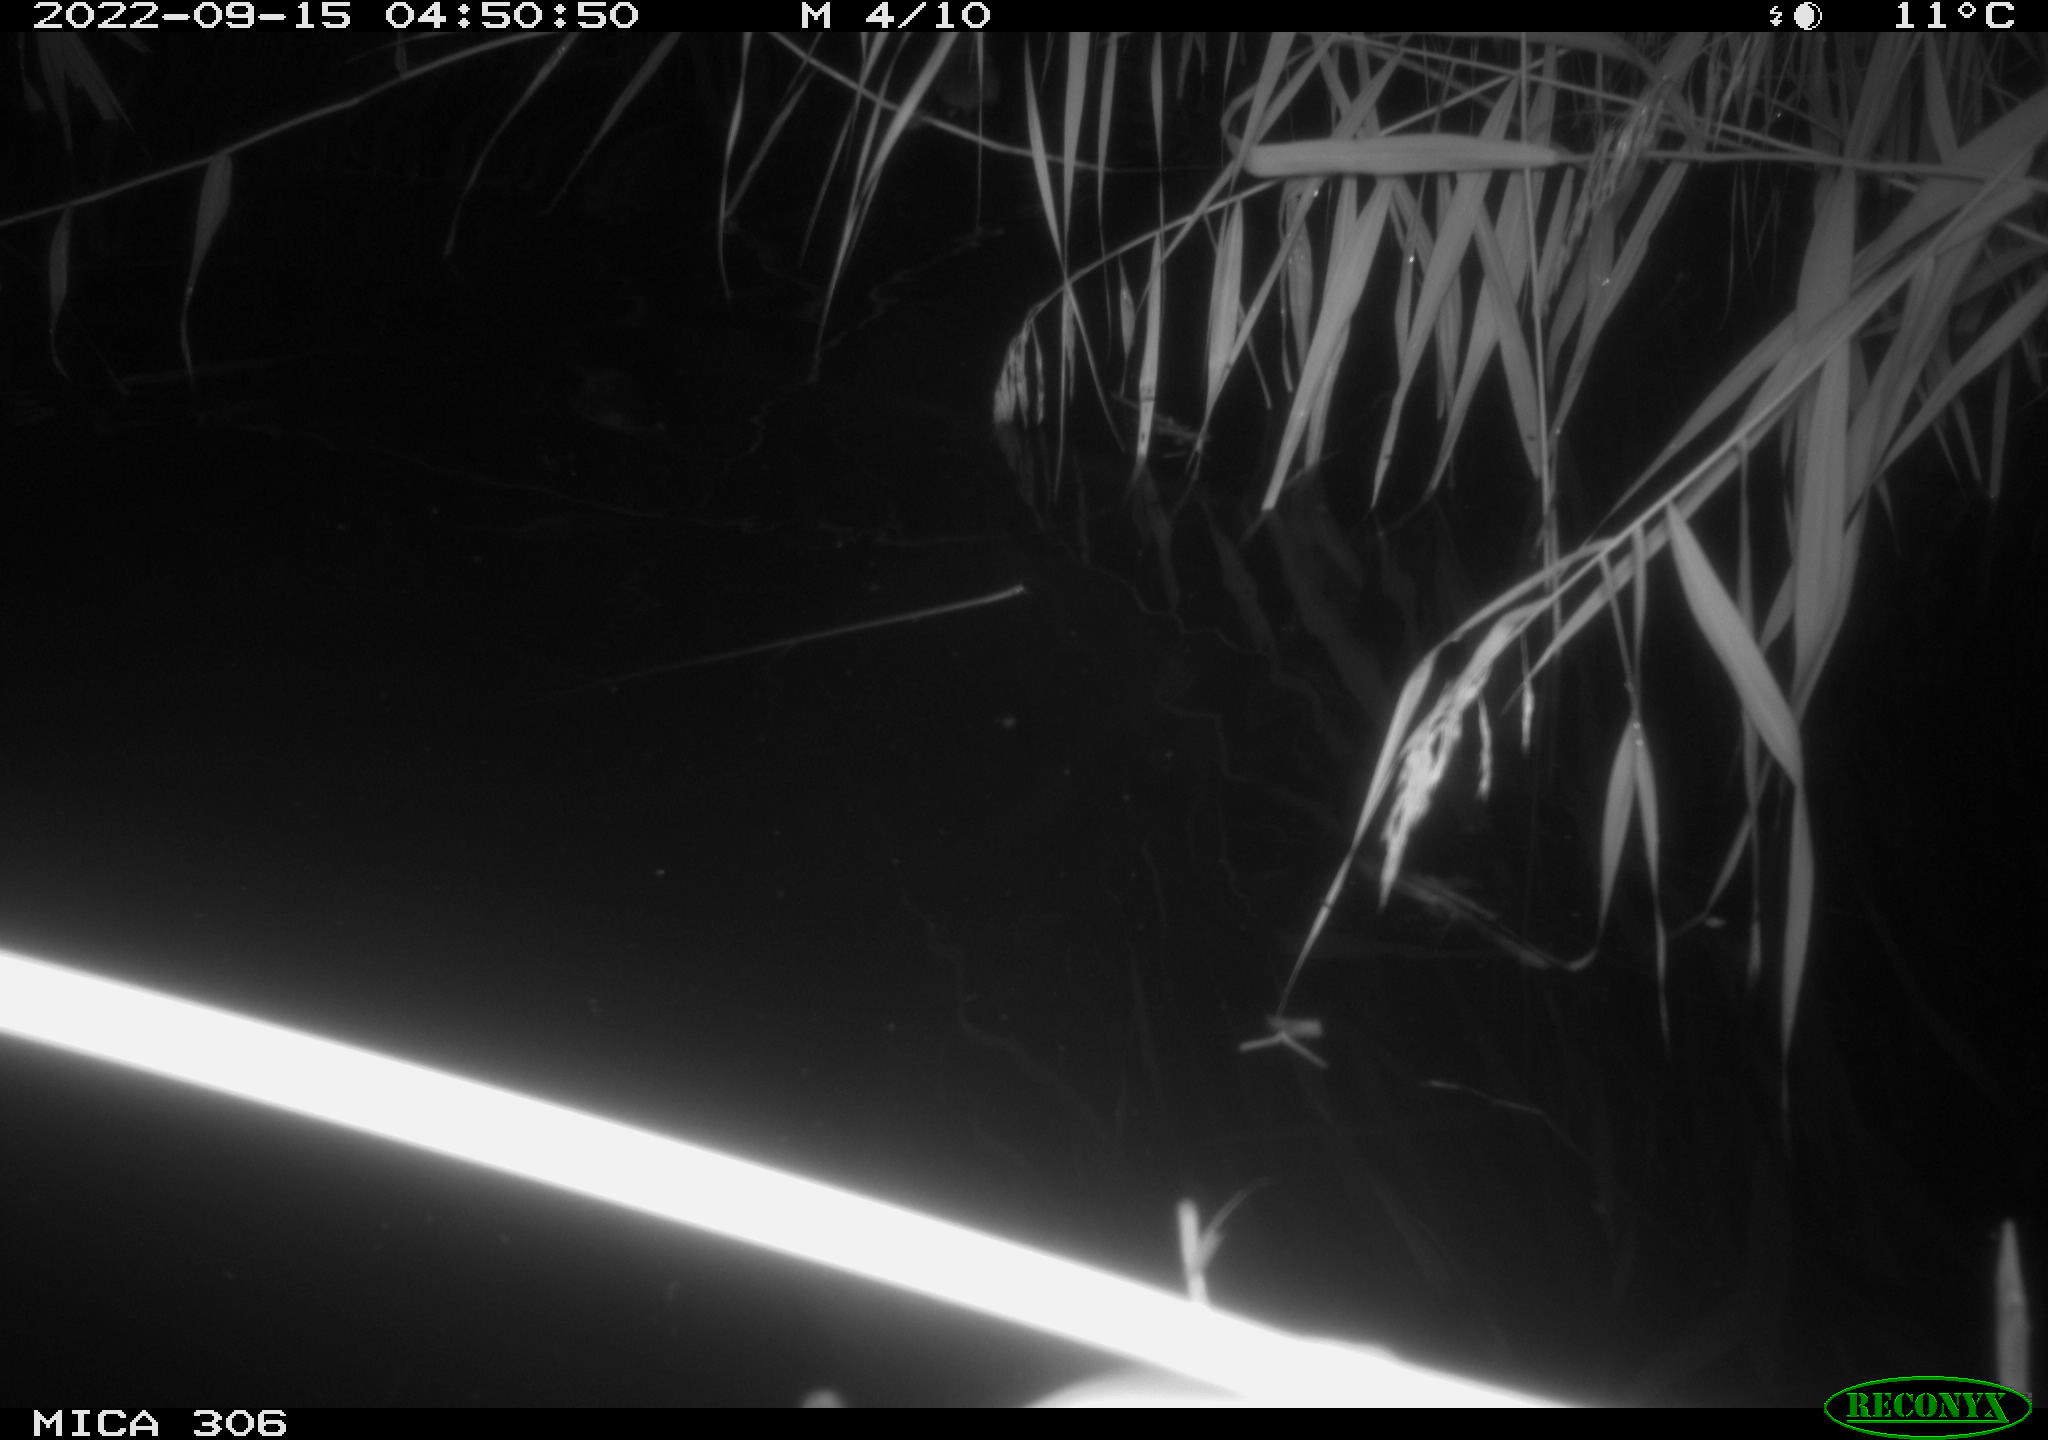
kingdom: Animalia
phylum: Chordata
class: Mammalia
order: Rodentia
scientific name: Rodentia
